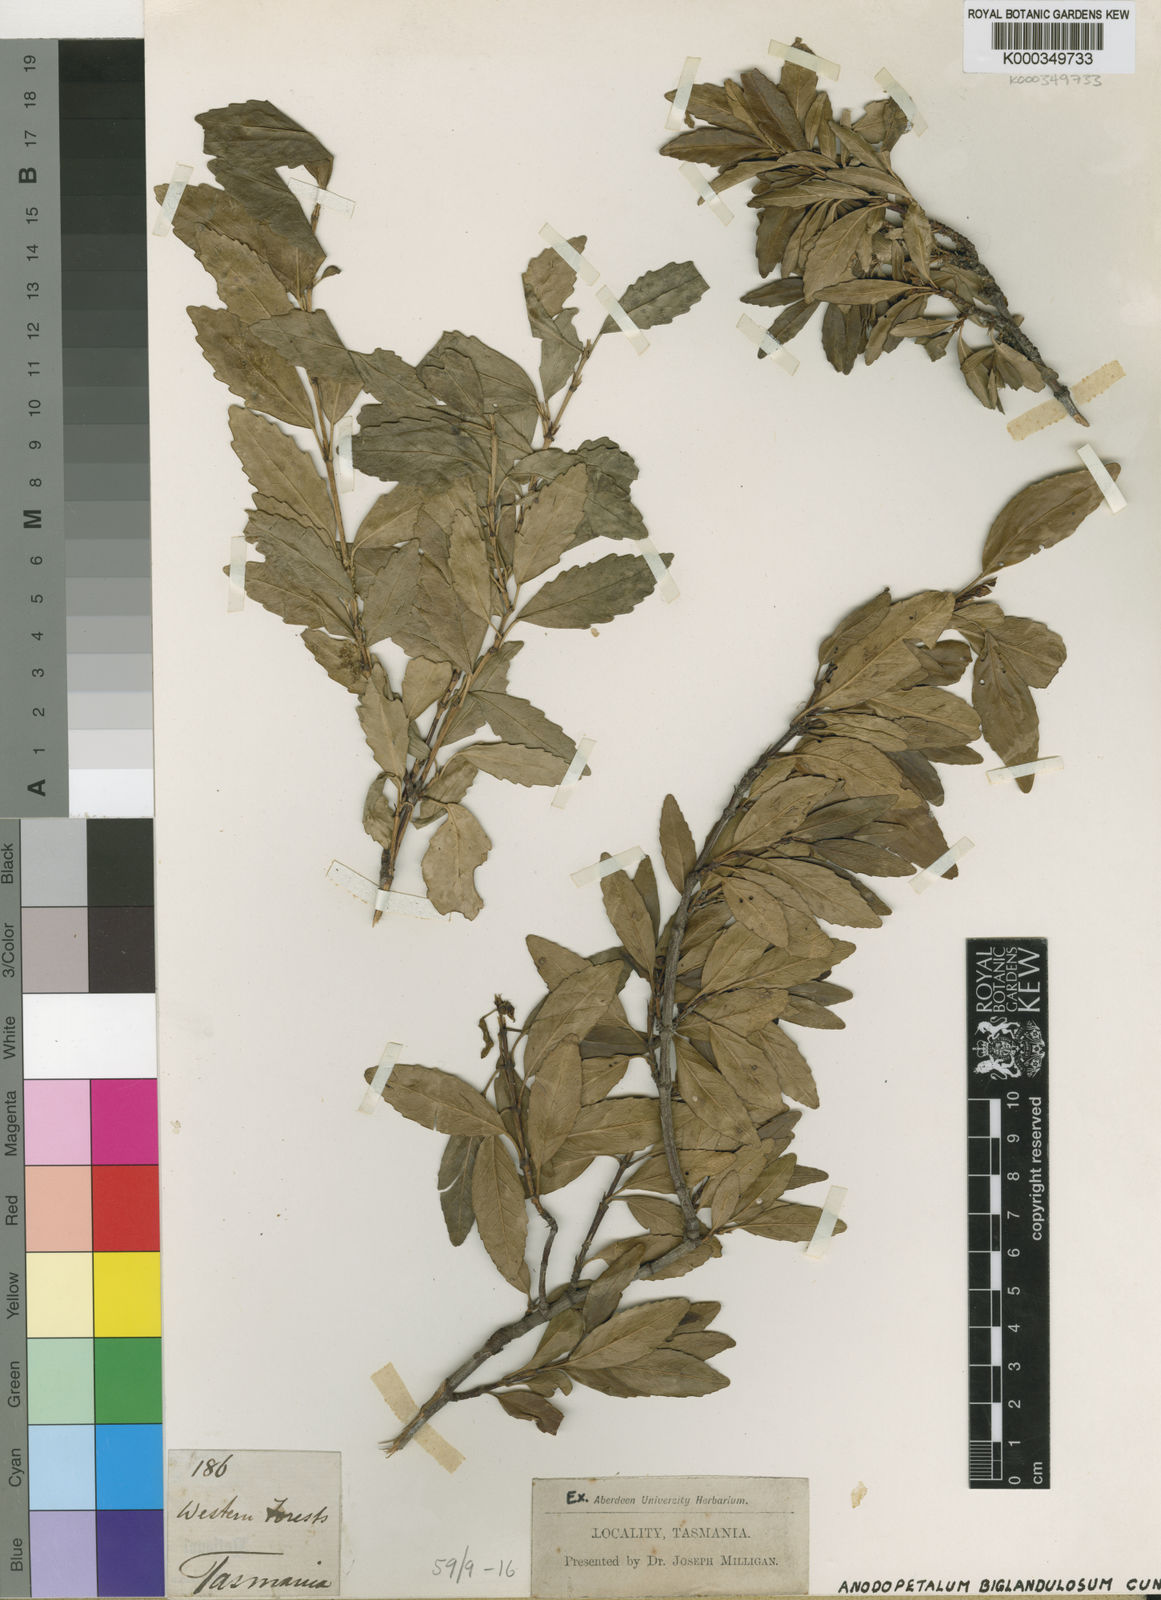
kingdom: Plantae
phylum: Tracheophyta
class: Magnoliopsida
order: Oxalidales
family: Cunoniaceae
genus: Anodopetalum
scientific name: Anodopetalum biglandulosum
